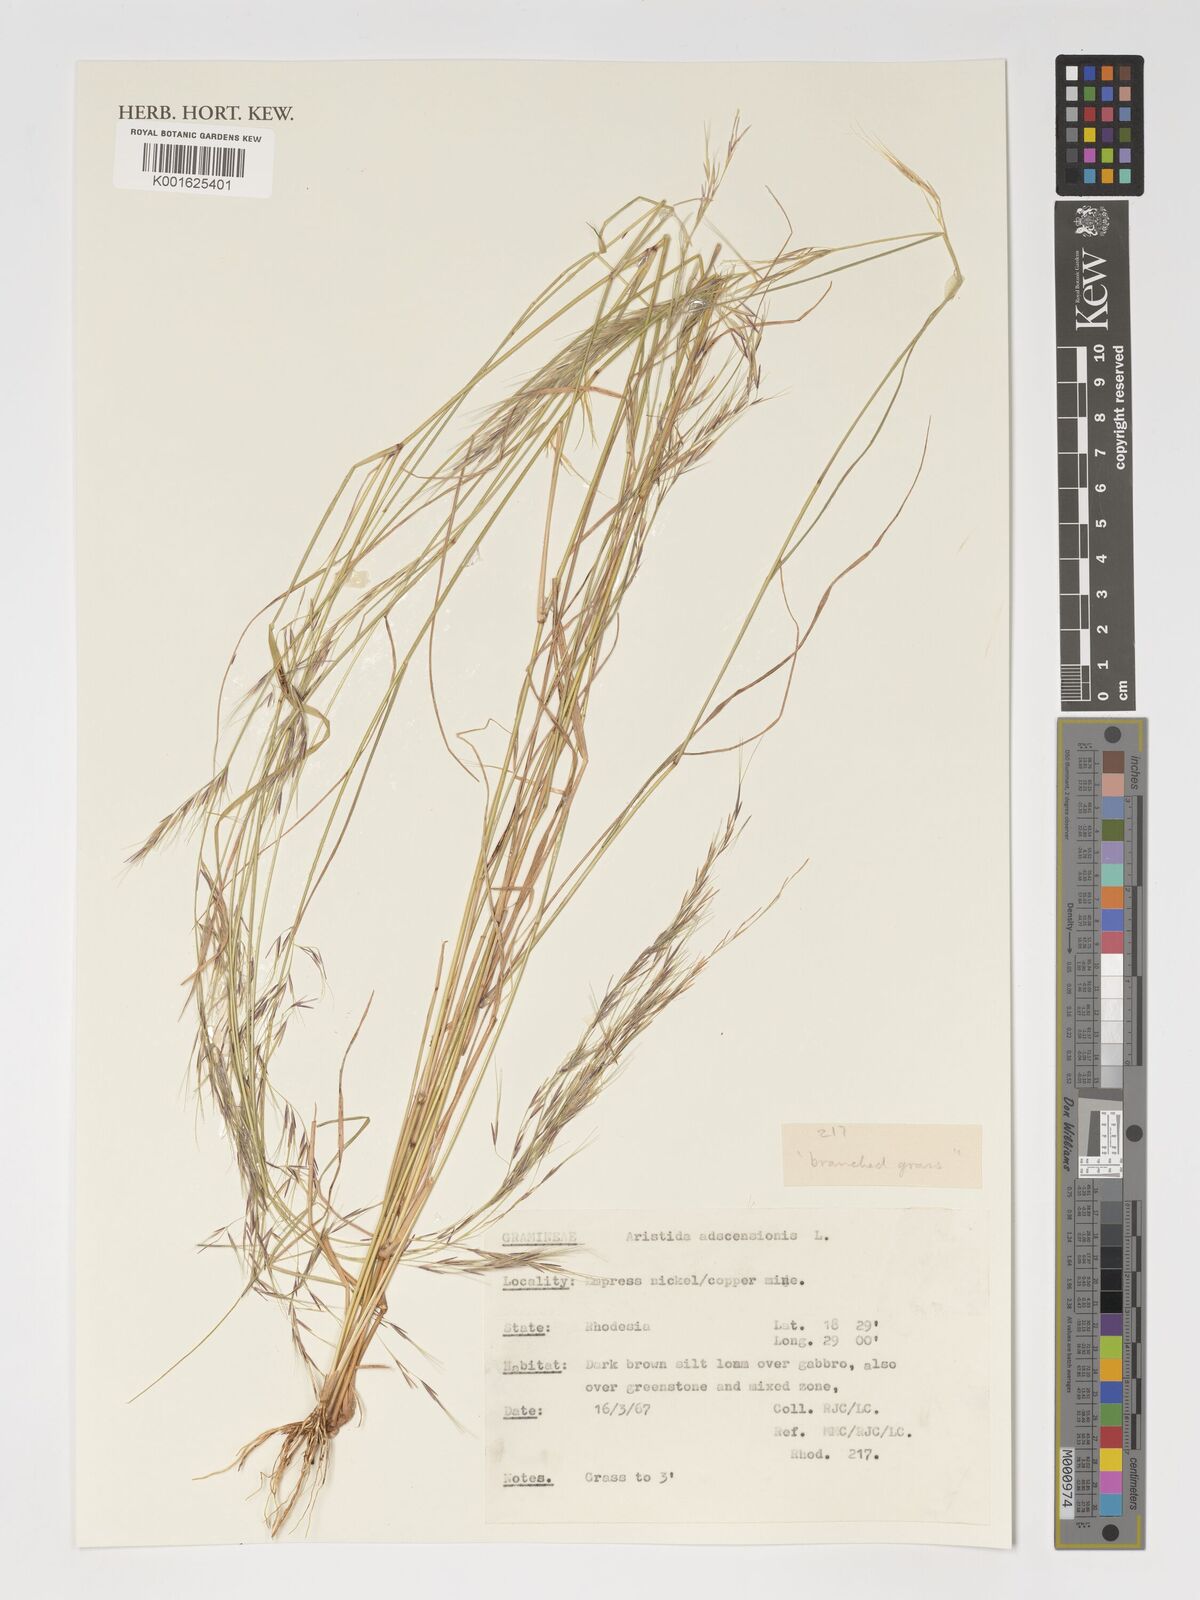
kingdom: Plantae
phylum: Tracheophyta
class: Liliopsida
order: Poales
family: Poaceae
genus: Aristida
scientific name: Aristida adscensionis
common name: Sixweeks threeawn
